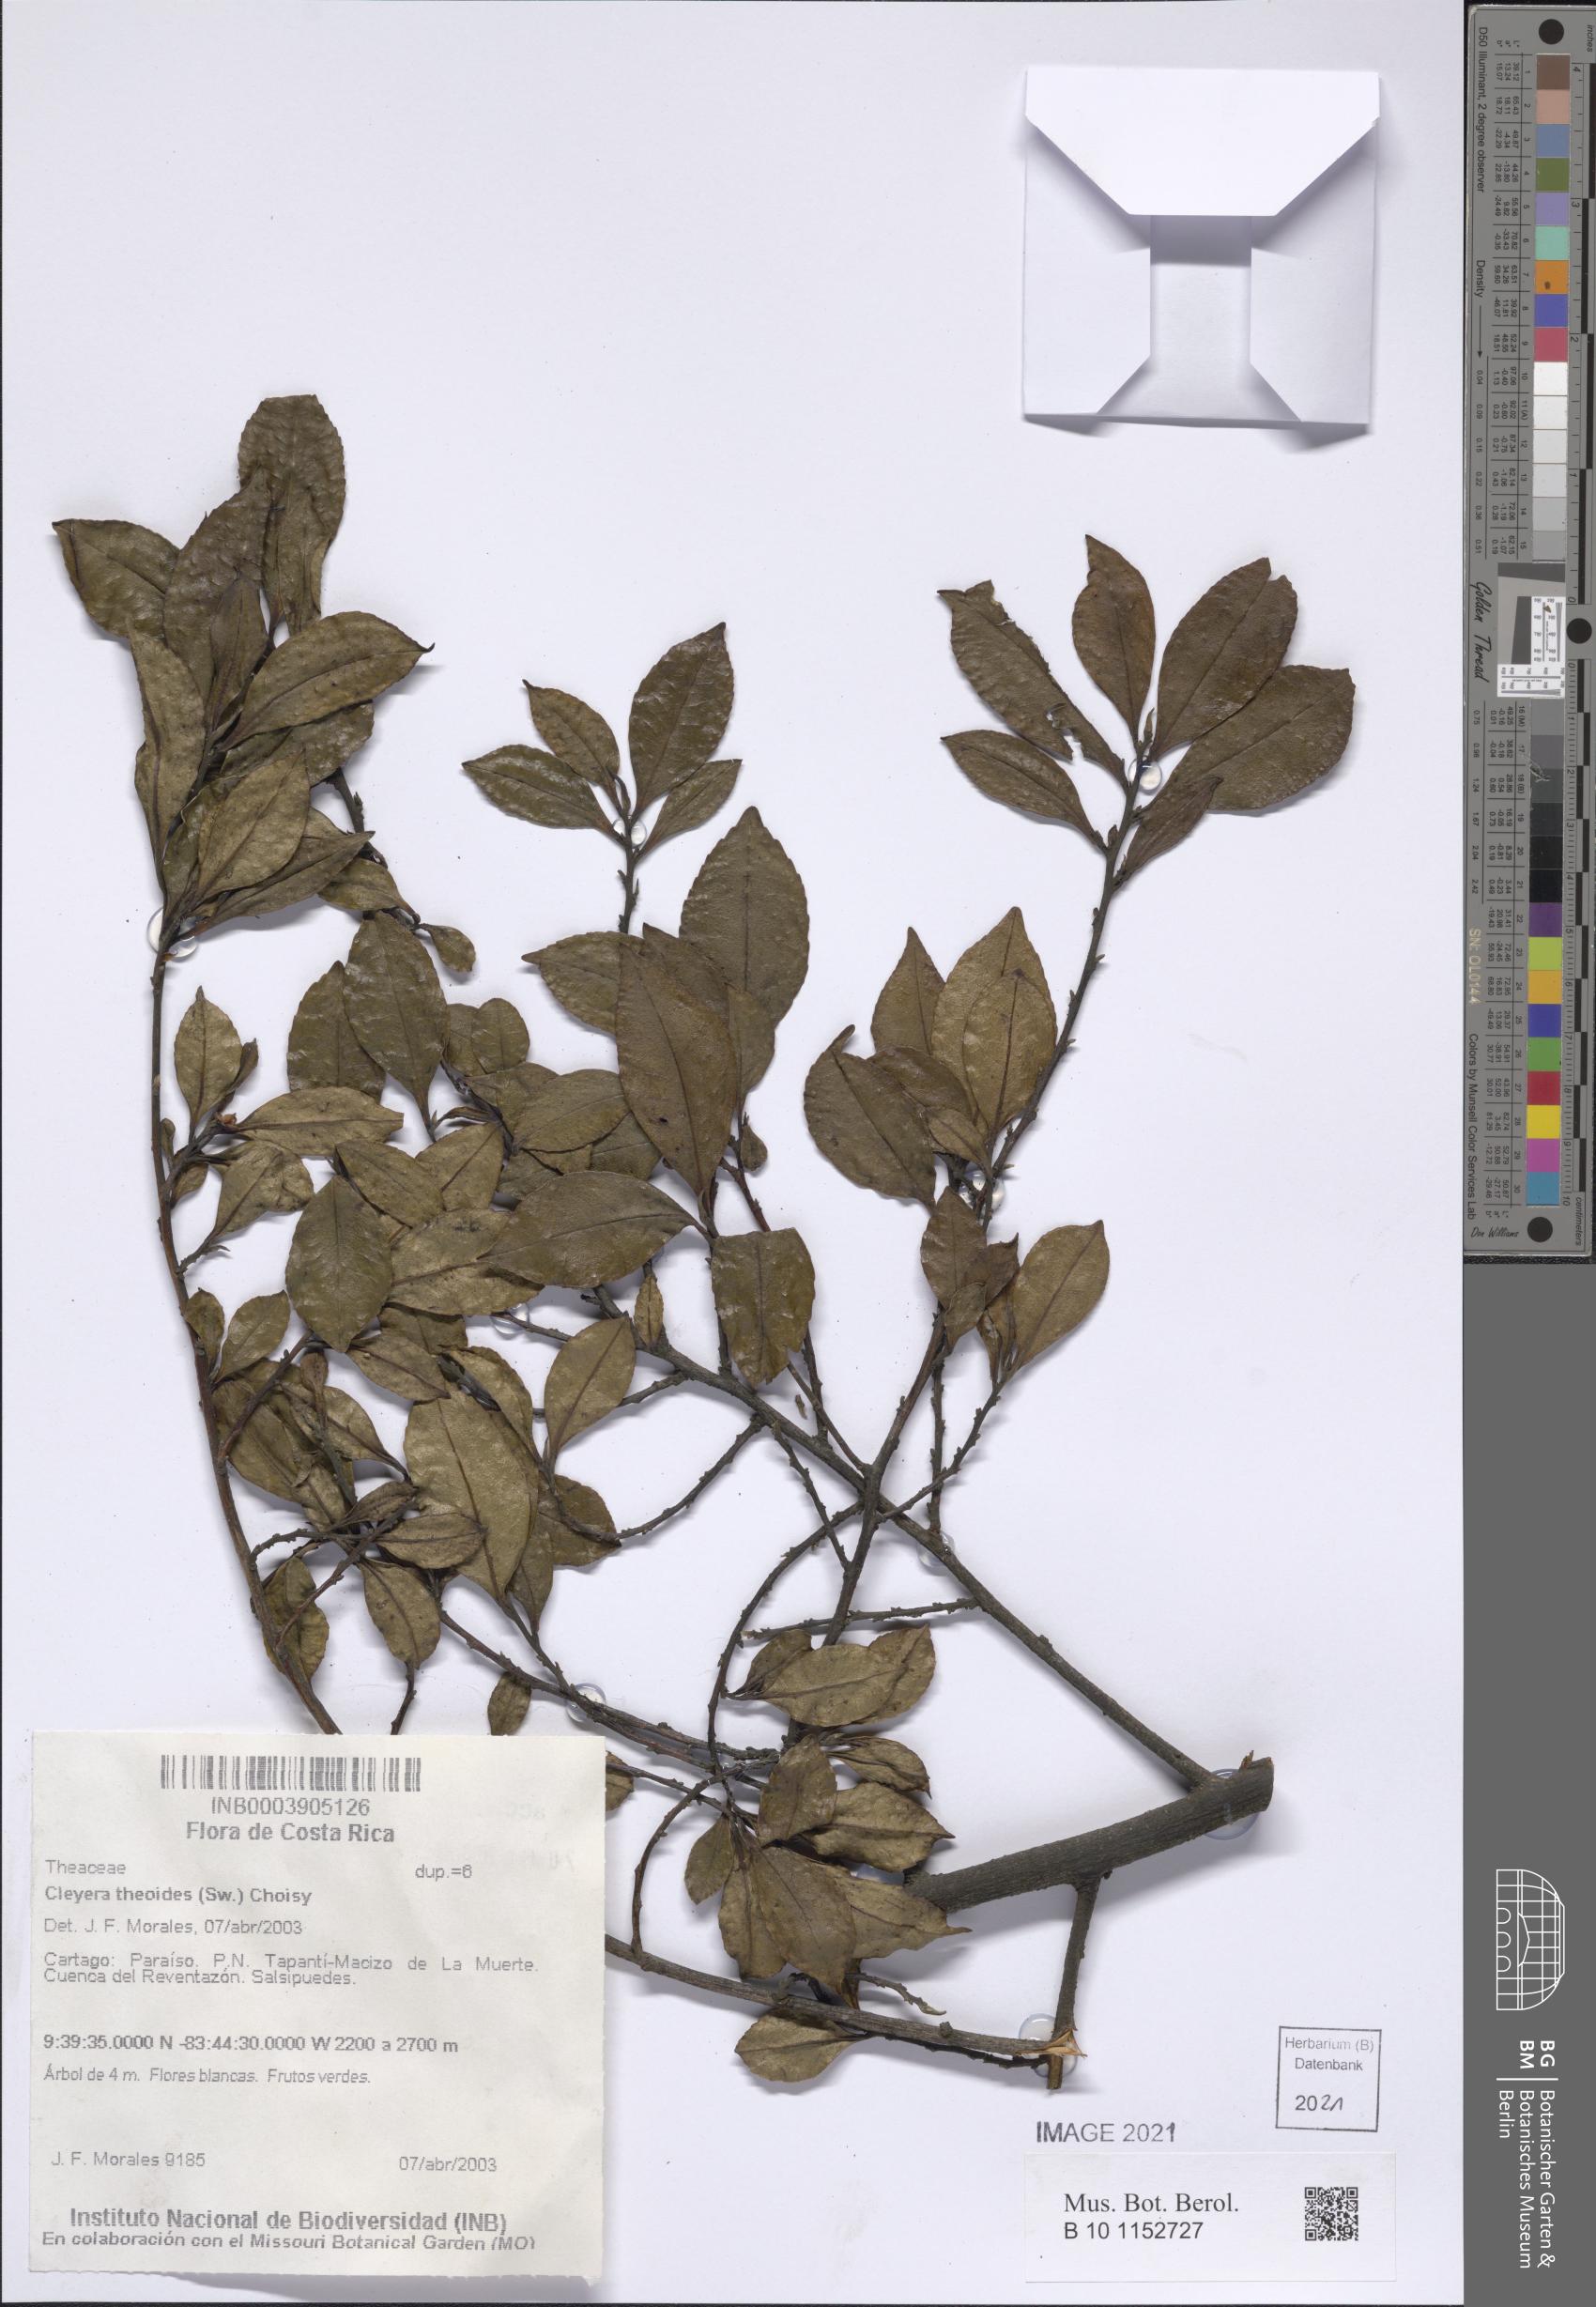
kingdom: Plantae
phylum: Tracheophyta
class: Magnoliopsida
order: Ericales
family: Pentaphylacaceae
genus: Cleyera
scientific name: Cleyera theaeoides
